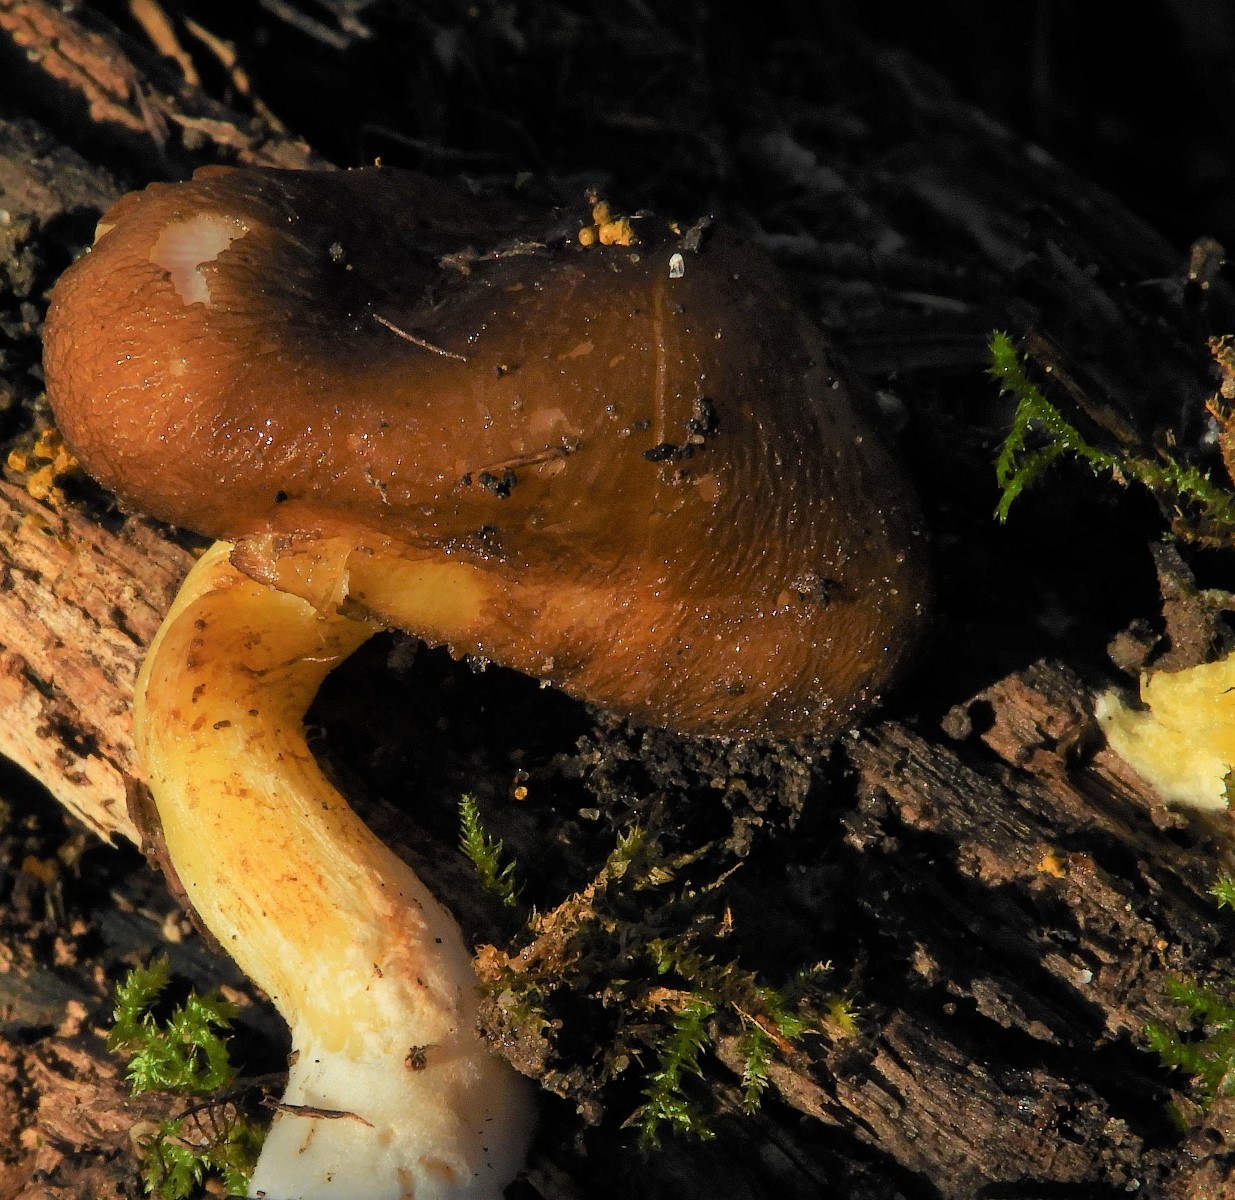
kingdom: Fungi
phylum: Basidiomycota
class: Agaricomycetes
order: Agaricales
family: Pluteaceae
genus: Pluteus
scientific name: Pluteus romellii
